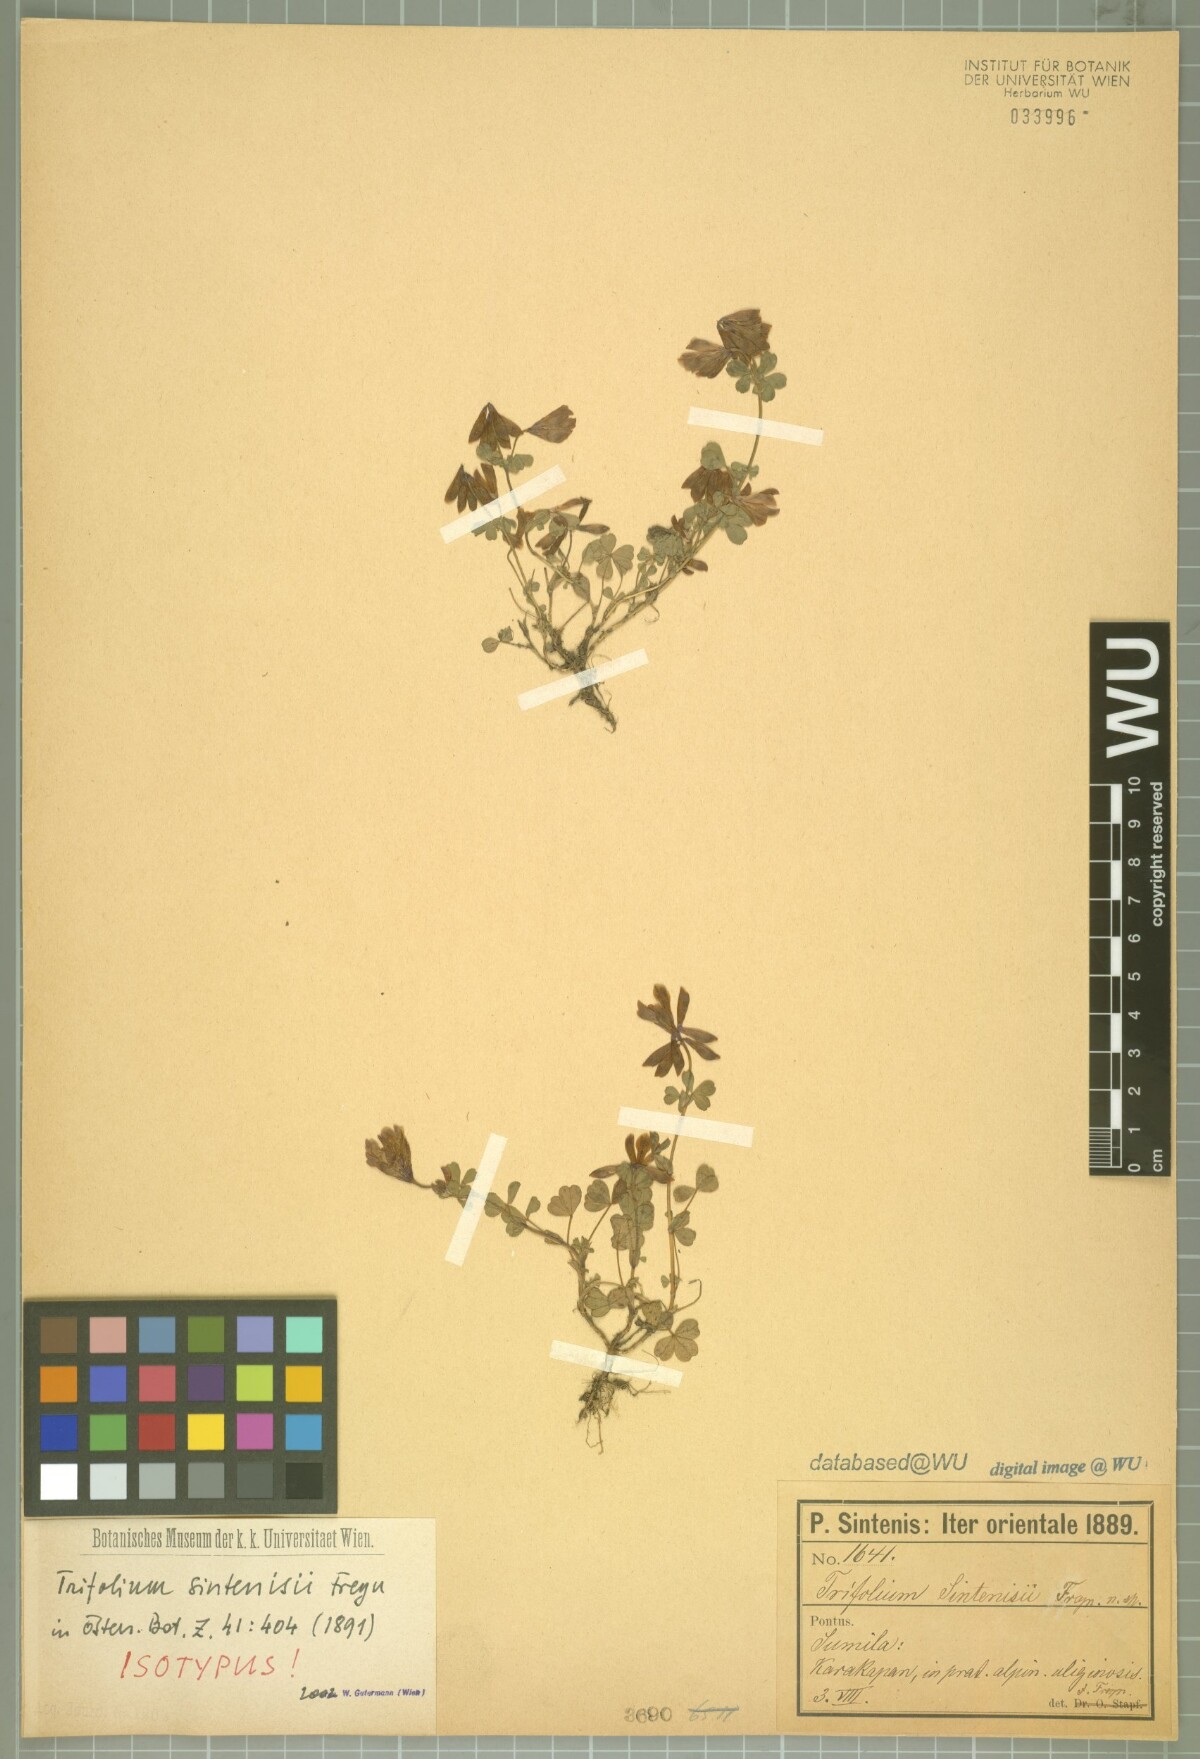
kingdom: Plantae
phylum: Tracheophyta
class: Magnoliopsida
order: Fabales
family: Fabaceae
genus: Trifolium
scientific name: Trifolium sintenisii
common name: Sintenis's clover
